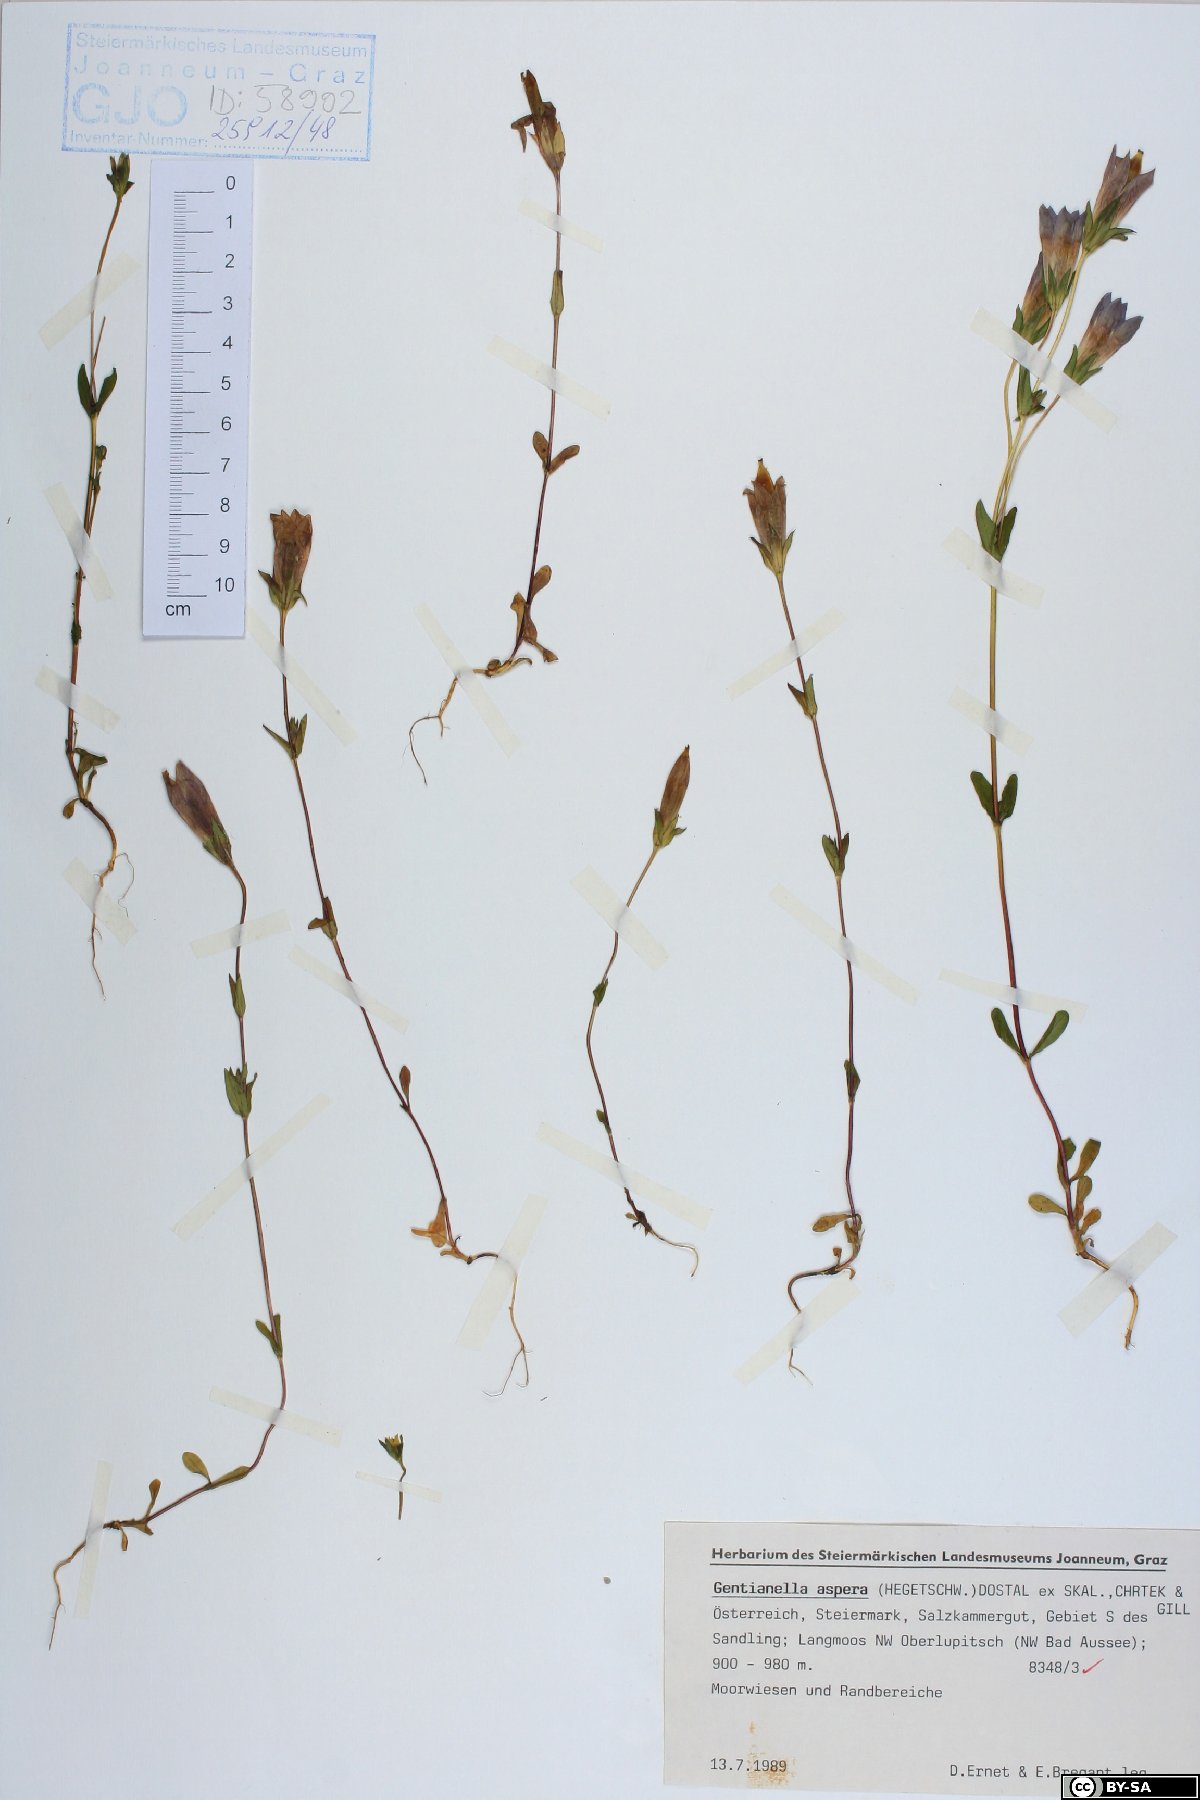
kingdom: Plantae
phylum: Tracheophyta
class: Magnoliopsida
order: Gentianales
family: Gentianaceae
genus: Gentianella
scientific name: Gentianella obtusifolia
